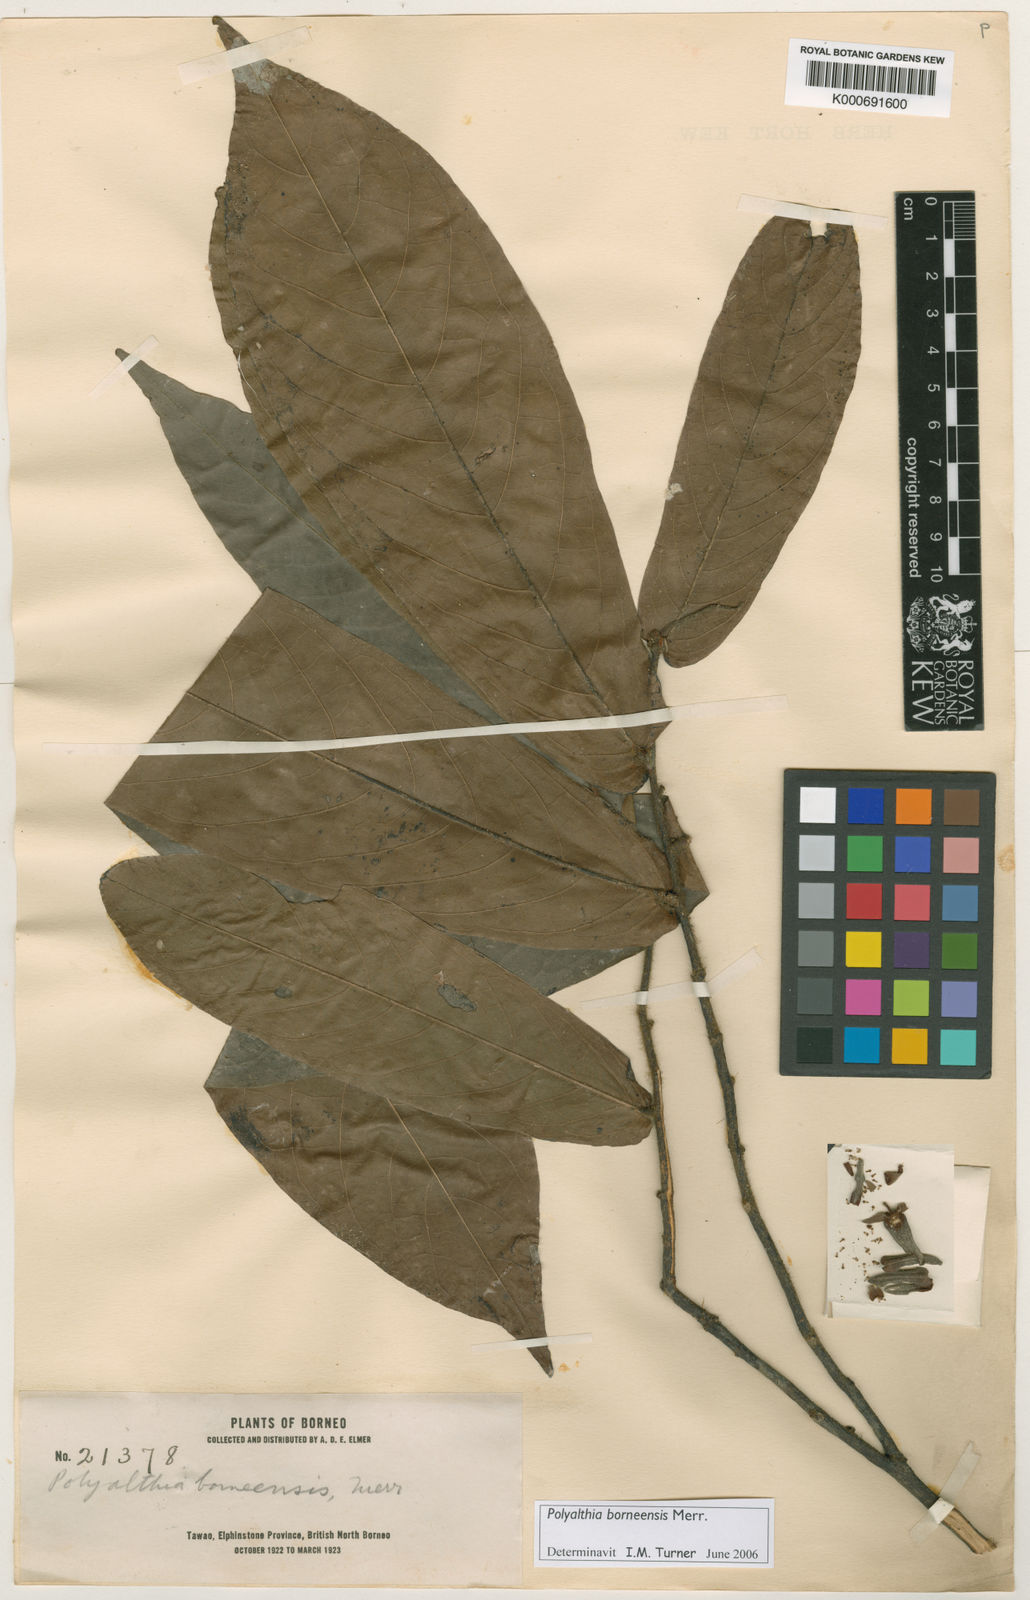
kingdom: Plantae
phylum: Tracheophyta
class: Magnoliopsida
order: Magnoliales
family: Annonaceae
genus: Polyalthia
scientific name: Polyalthia borneensis
